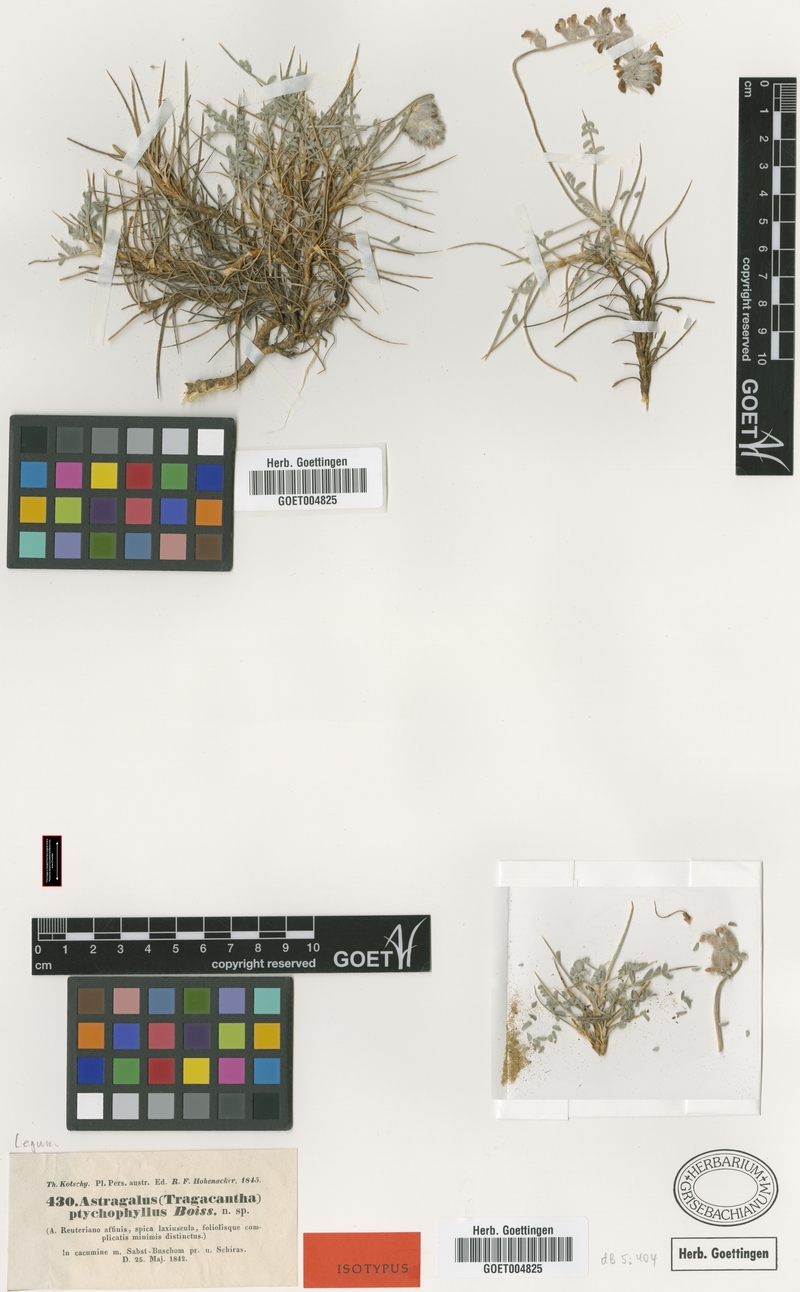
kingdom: Plantae
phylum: Tracheophyta
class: Magnoliopsida
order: Fabales
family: Fabaceae
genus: Astragalus
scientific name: Astragalus ptychophyllus
